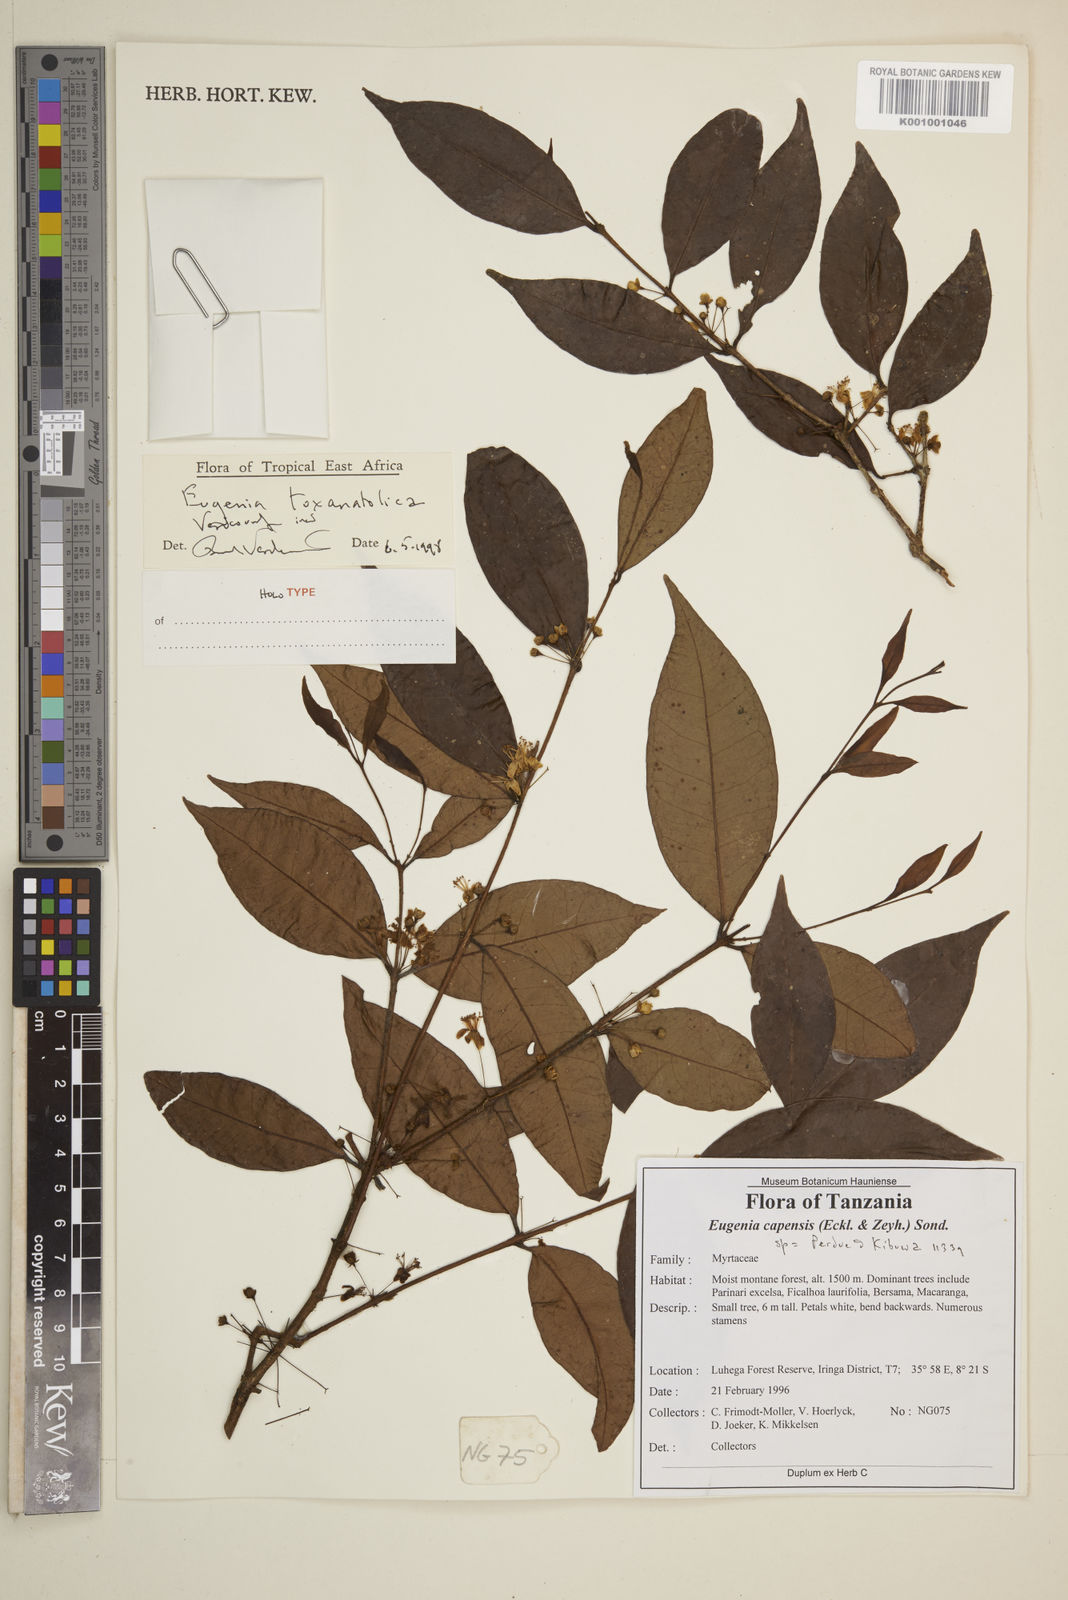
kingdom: Plantae
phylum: Tracheophyta
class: Magnoliopsida
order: Myrtales
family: Myrtaceae
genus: Eugenia
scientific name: Eugenia toxanatolica
